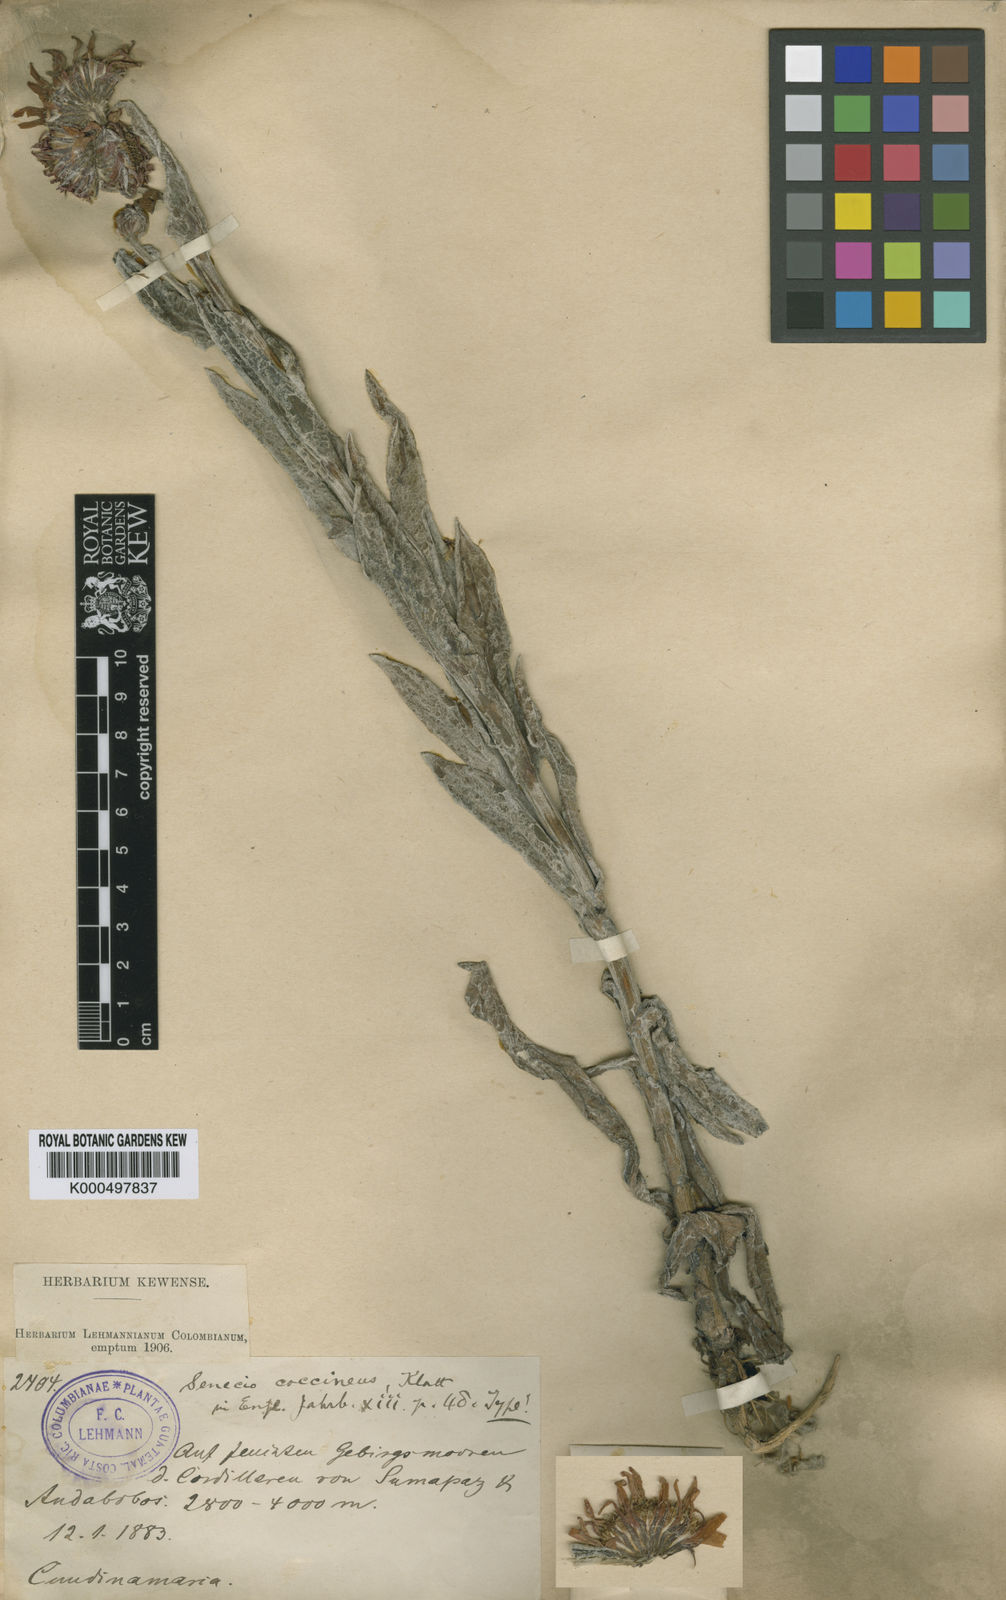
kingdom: Plantae
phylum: Tracheophyta
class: Magnoliopsida
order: Asterales
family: Asteraceae
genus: Senecio
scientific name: Senecio coccineus
